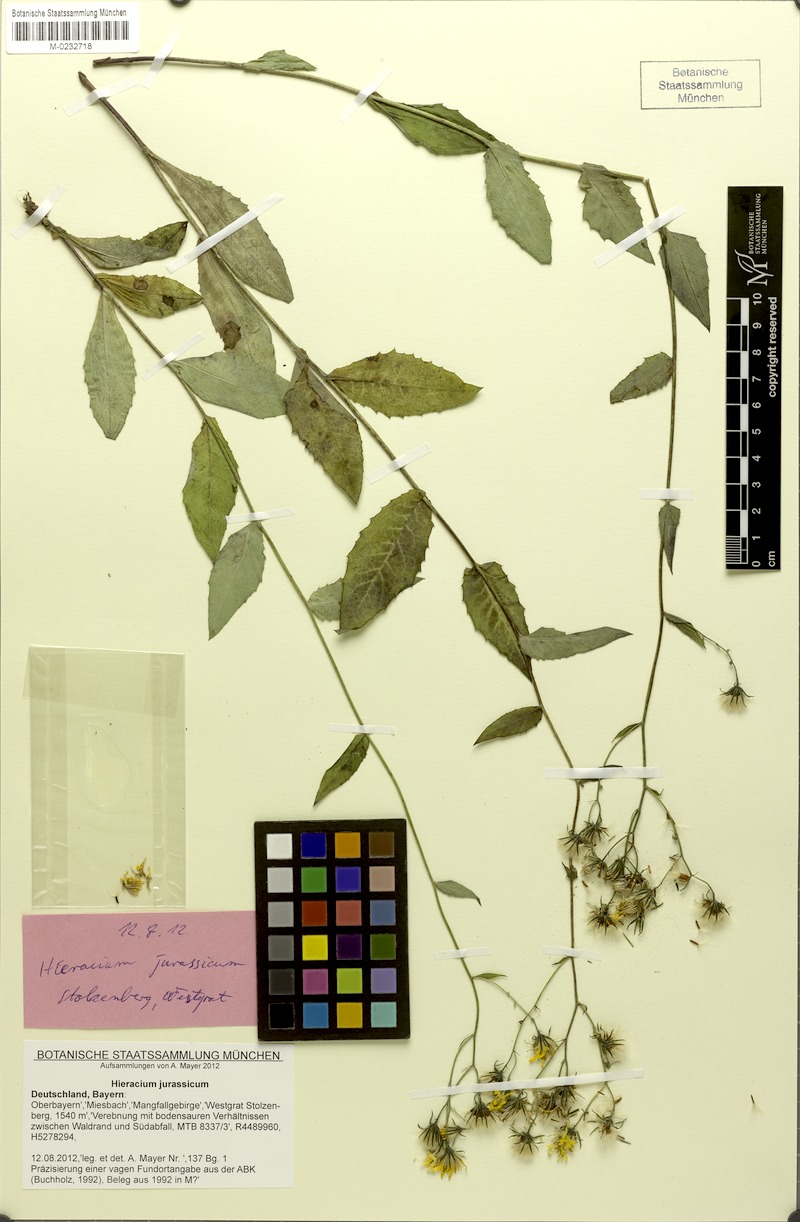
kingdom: Plantae
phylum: Tracheophyta
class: Magnoliopsida
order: Asterales
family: Asteraceae
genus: Hieracium
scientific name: Hieracium jurassicum
